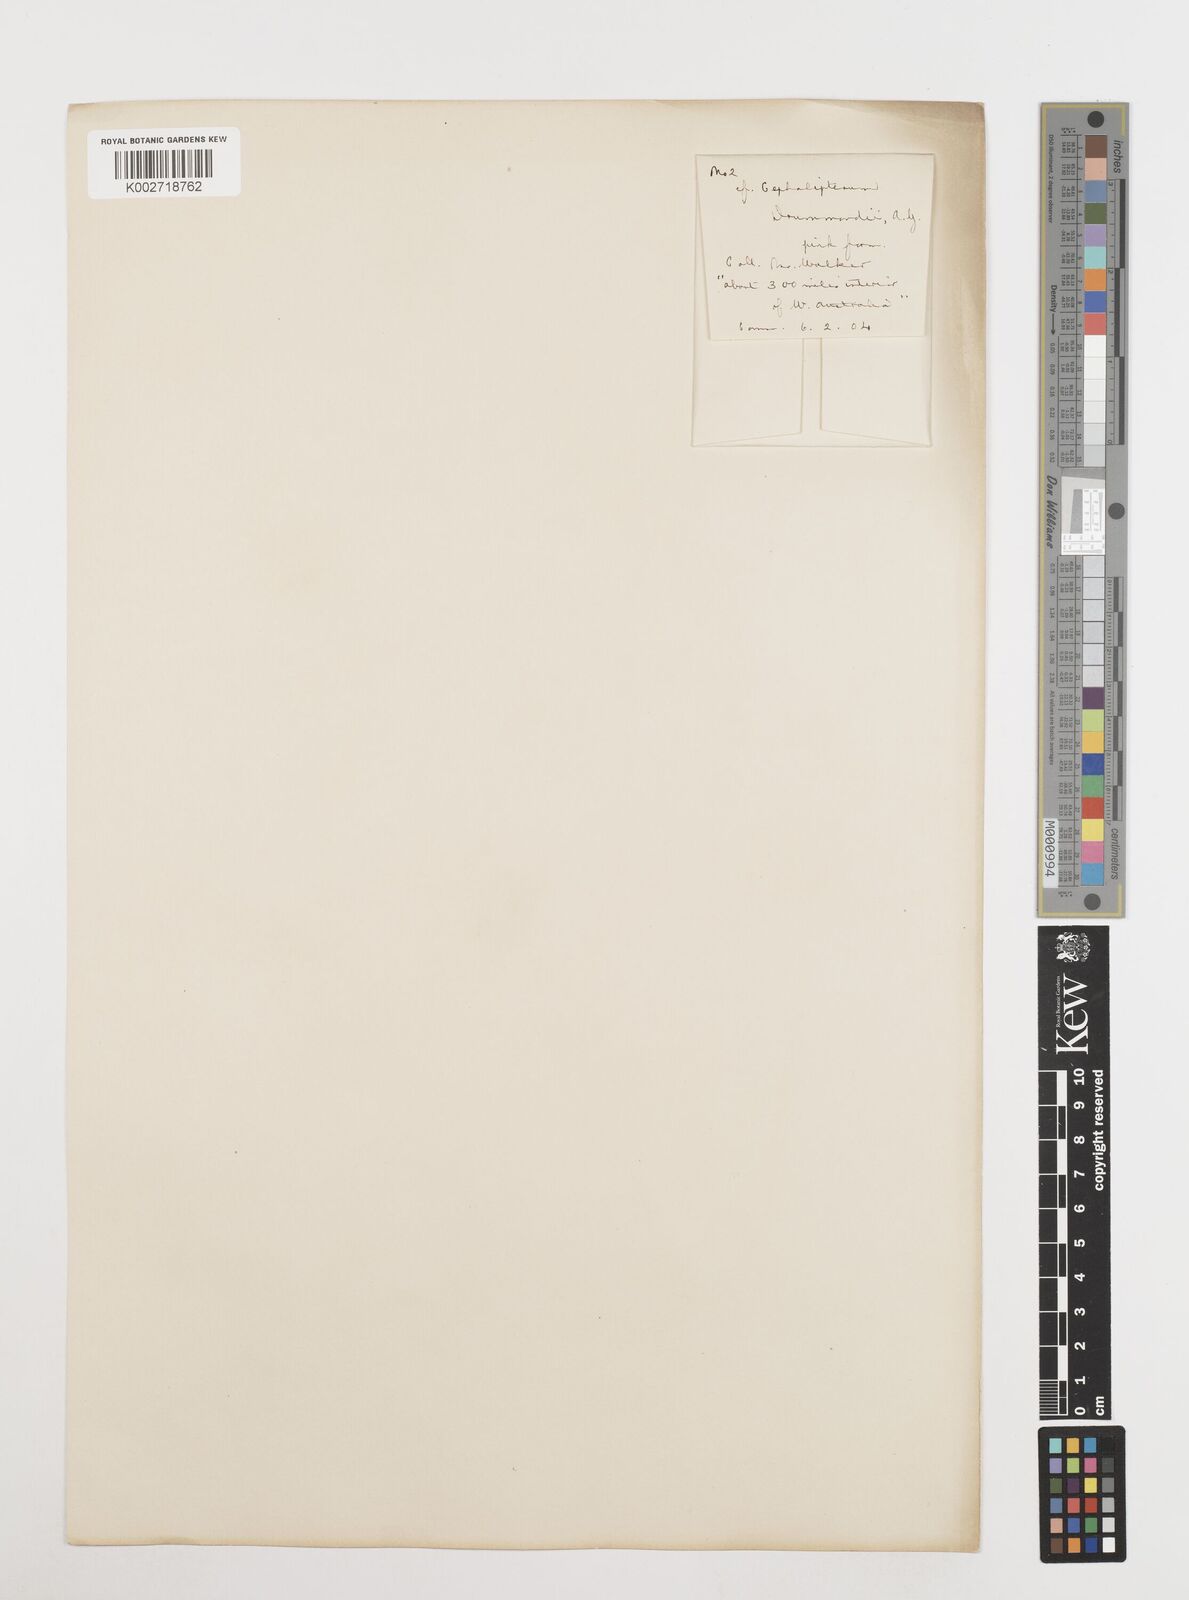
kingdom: Plantae
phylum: Tracheophyta
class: Magnoliopsida
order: Asterales
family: Asteraceae
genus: Cephalipterum
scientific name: Cephalipterum drummondii
